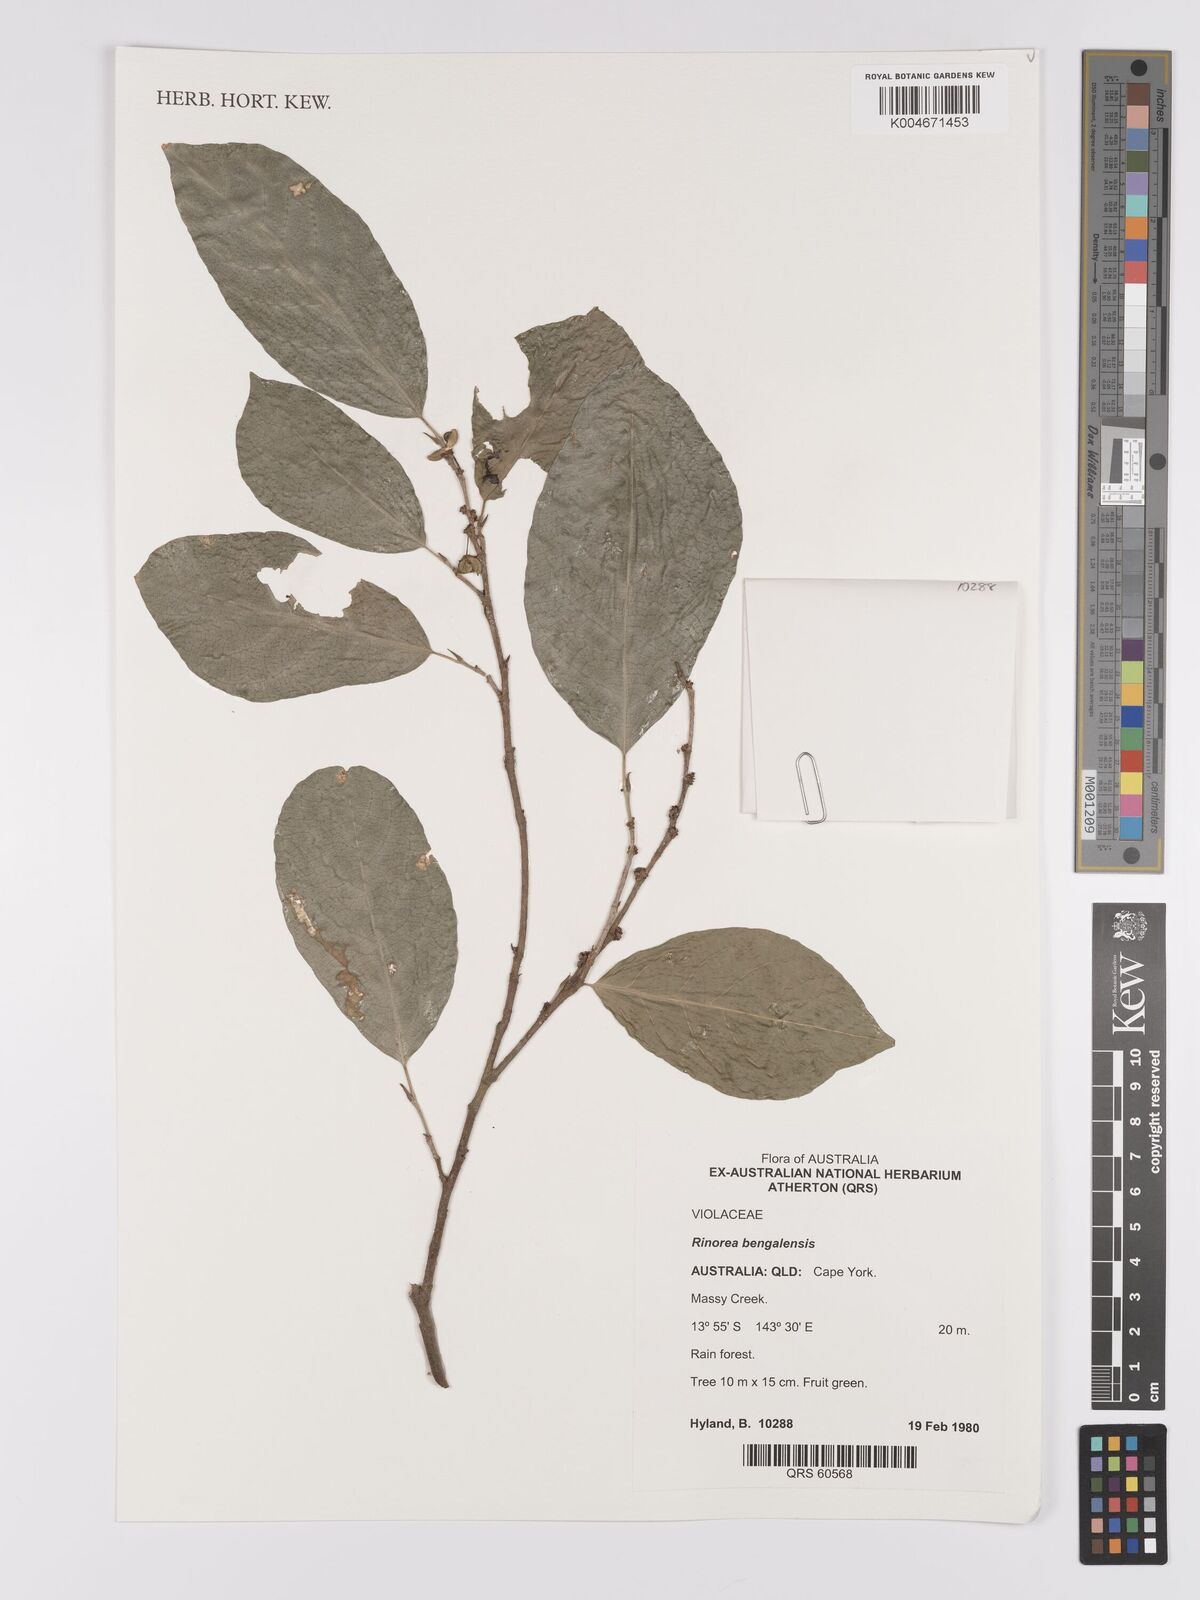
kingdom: Plantae
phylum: Tracheophyta
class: Magnoliopsida
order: Malpighiales
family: Violaceae
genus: Rinorea
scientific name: Rinorea bengalensis
